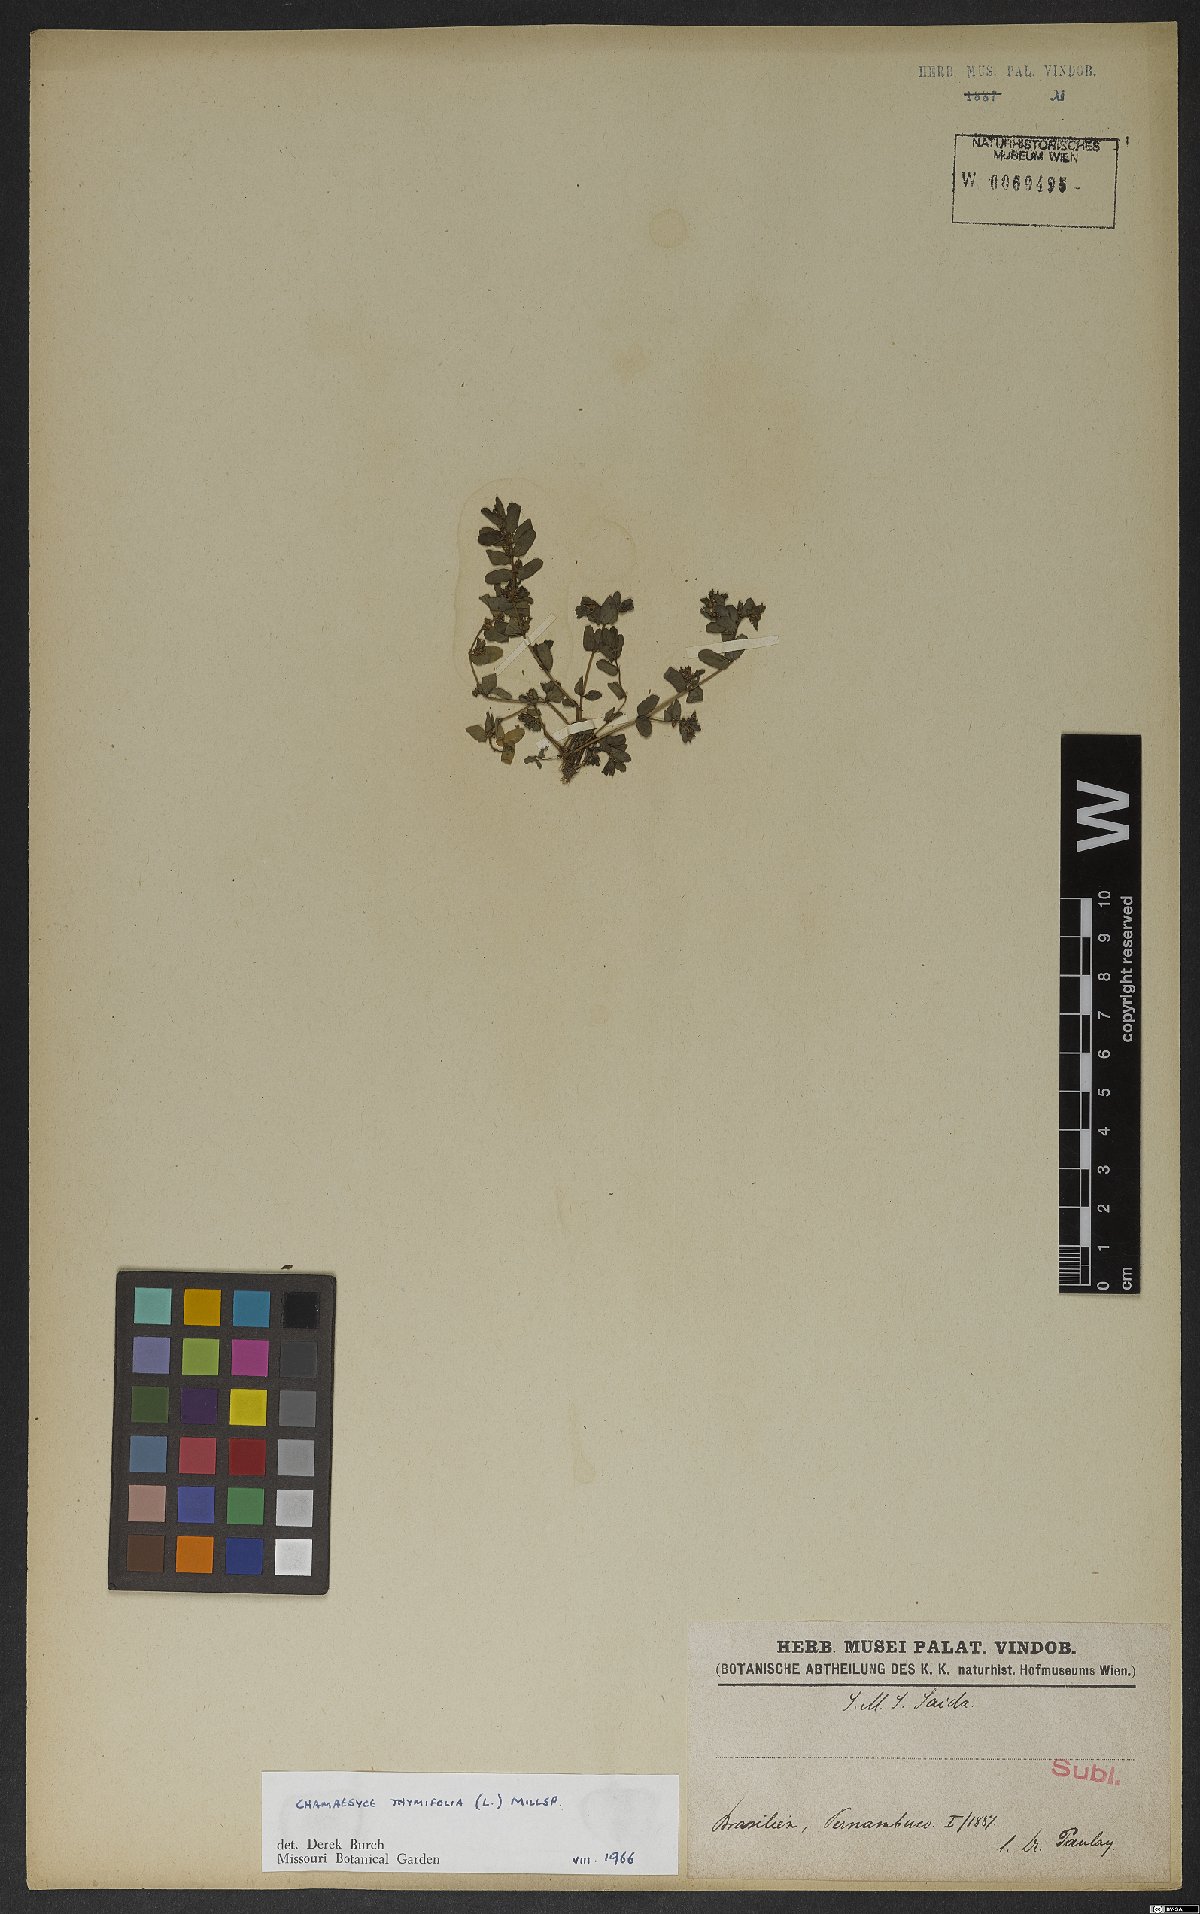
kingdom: Plantae
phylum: Tracheophyta
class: Magnoliopsida
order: Malpighiales
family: Euphorbiaceae
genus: Euphorbia
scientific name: Euphorbia scordiifolia
